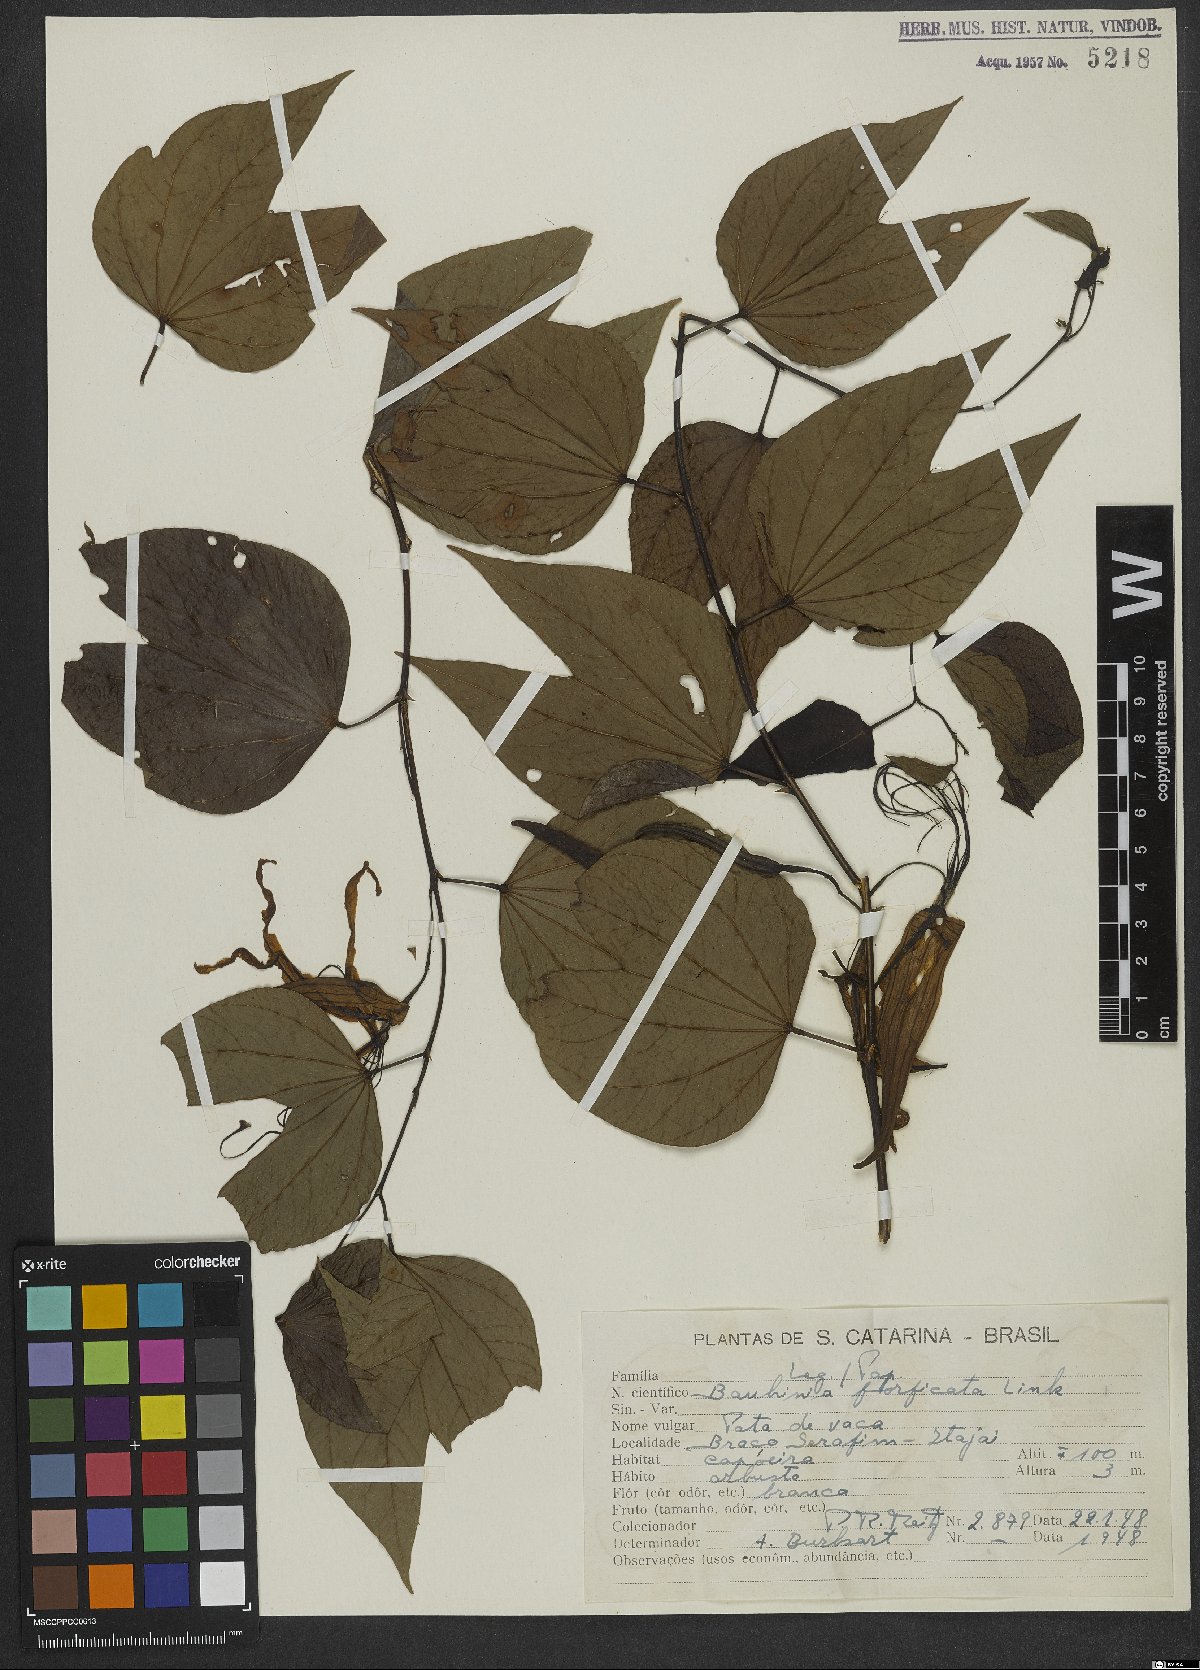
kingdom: Plantae
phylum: Tracheophyta
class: Magnoliopsida
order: Fabales
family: Fabaceae
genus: Bauhinia
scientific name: Bauhinia forficata
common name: Orchid tree
